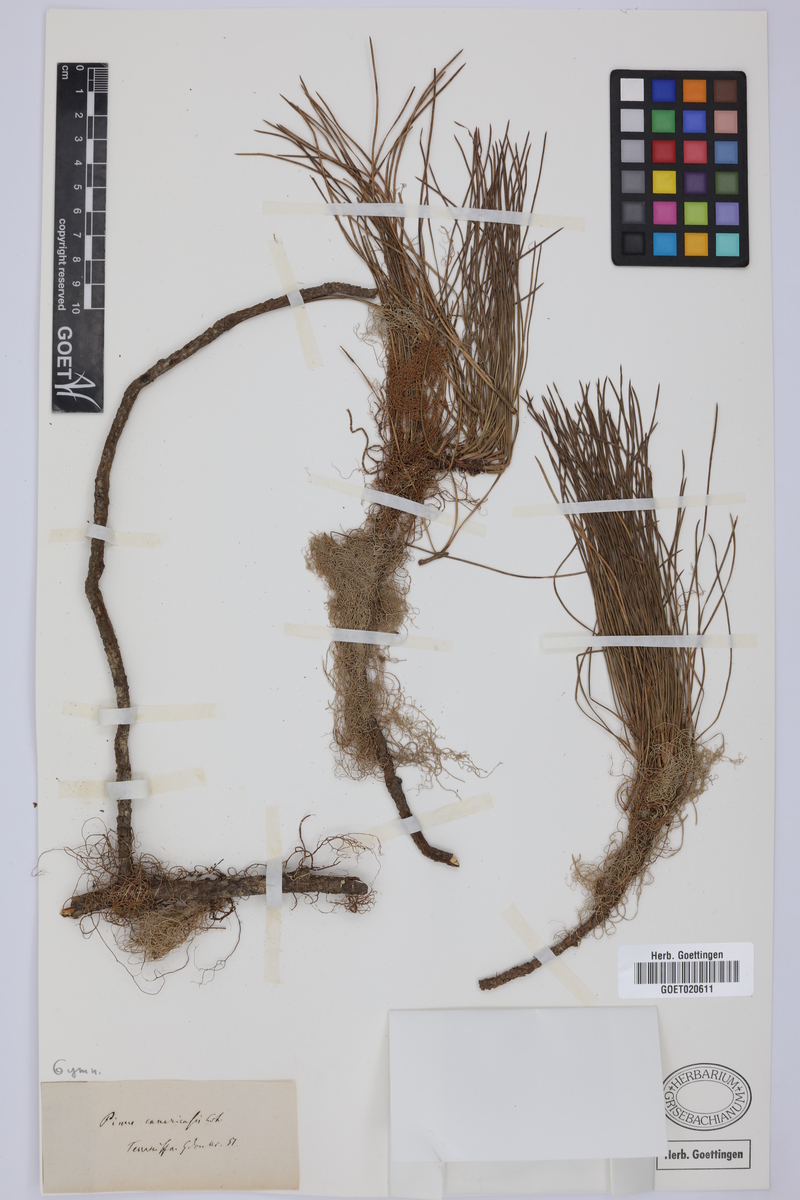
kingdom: Plantae
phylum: Tracheophyta
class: Pinopsida
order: Pinales
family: Pinaceae
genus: Pinus
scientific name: Pinus canariensis
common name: Canary islands pine
